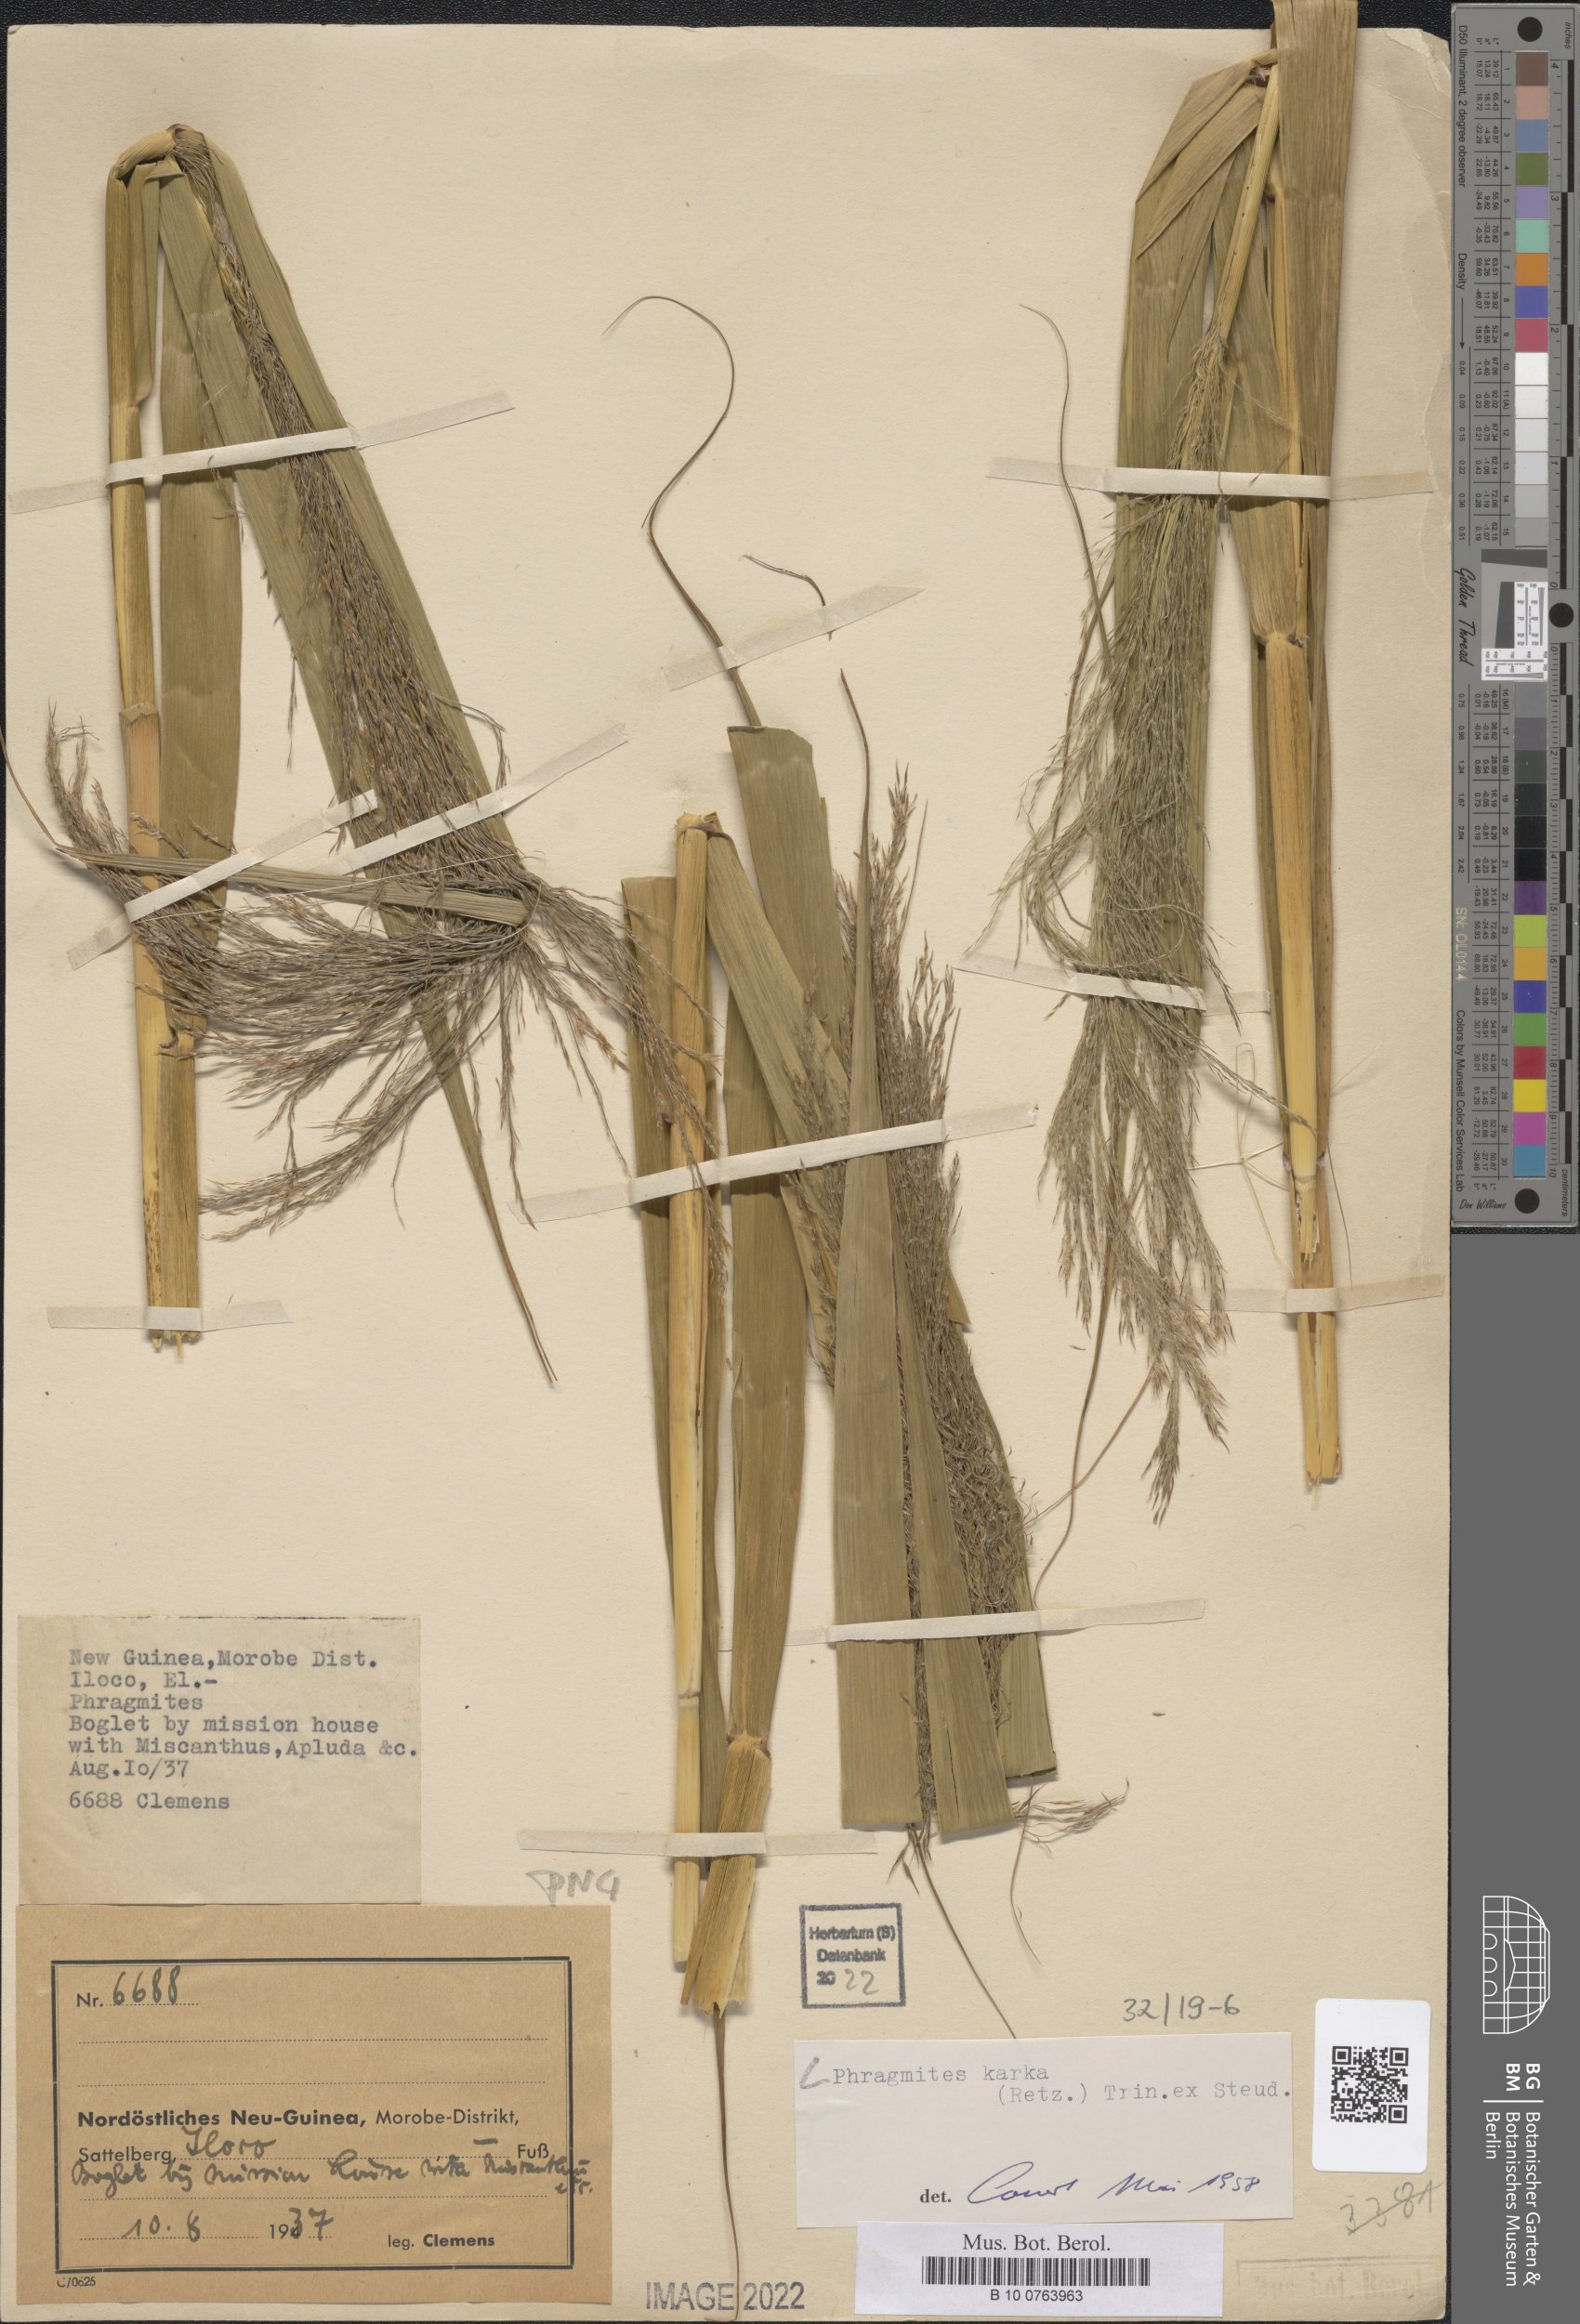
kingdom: Plantae
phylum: Tracheophyta
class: Liliopsida
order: Poales
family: Poaceae
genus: Phragmites
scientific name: Phragmites karka
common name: Tropical reed
